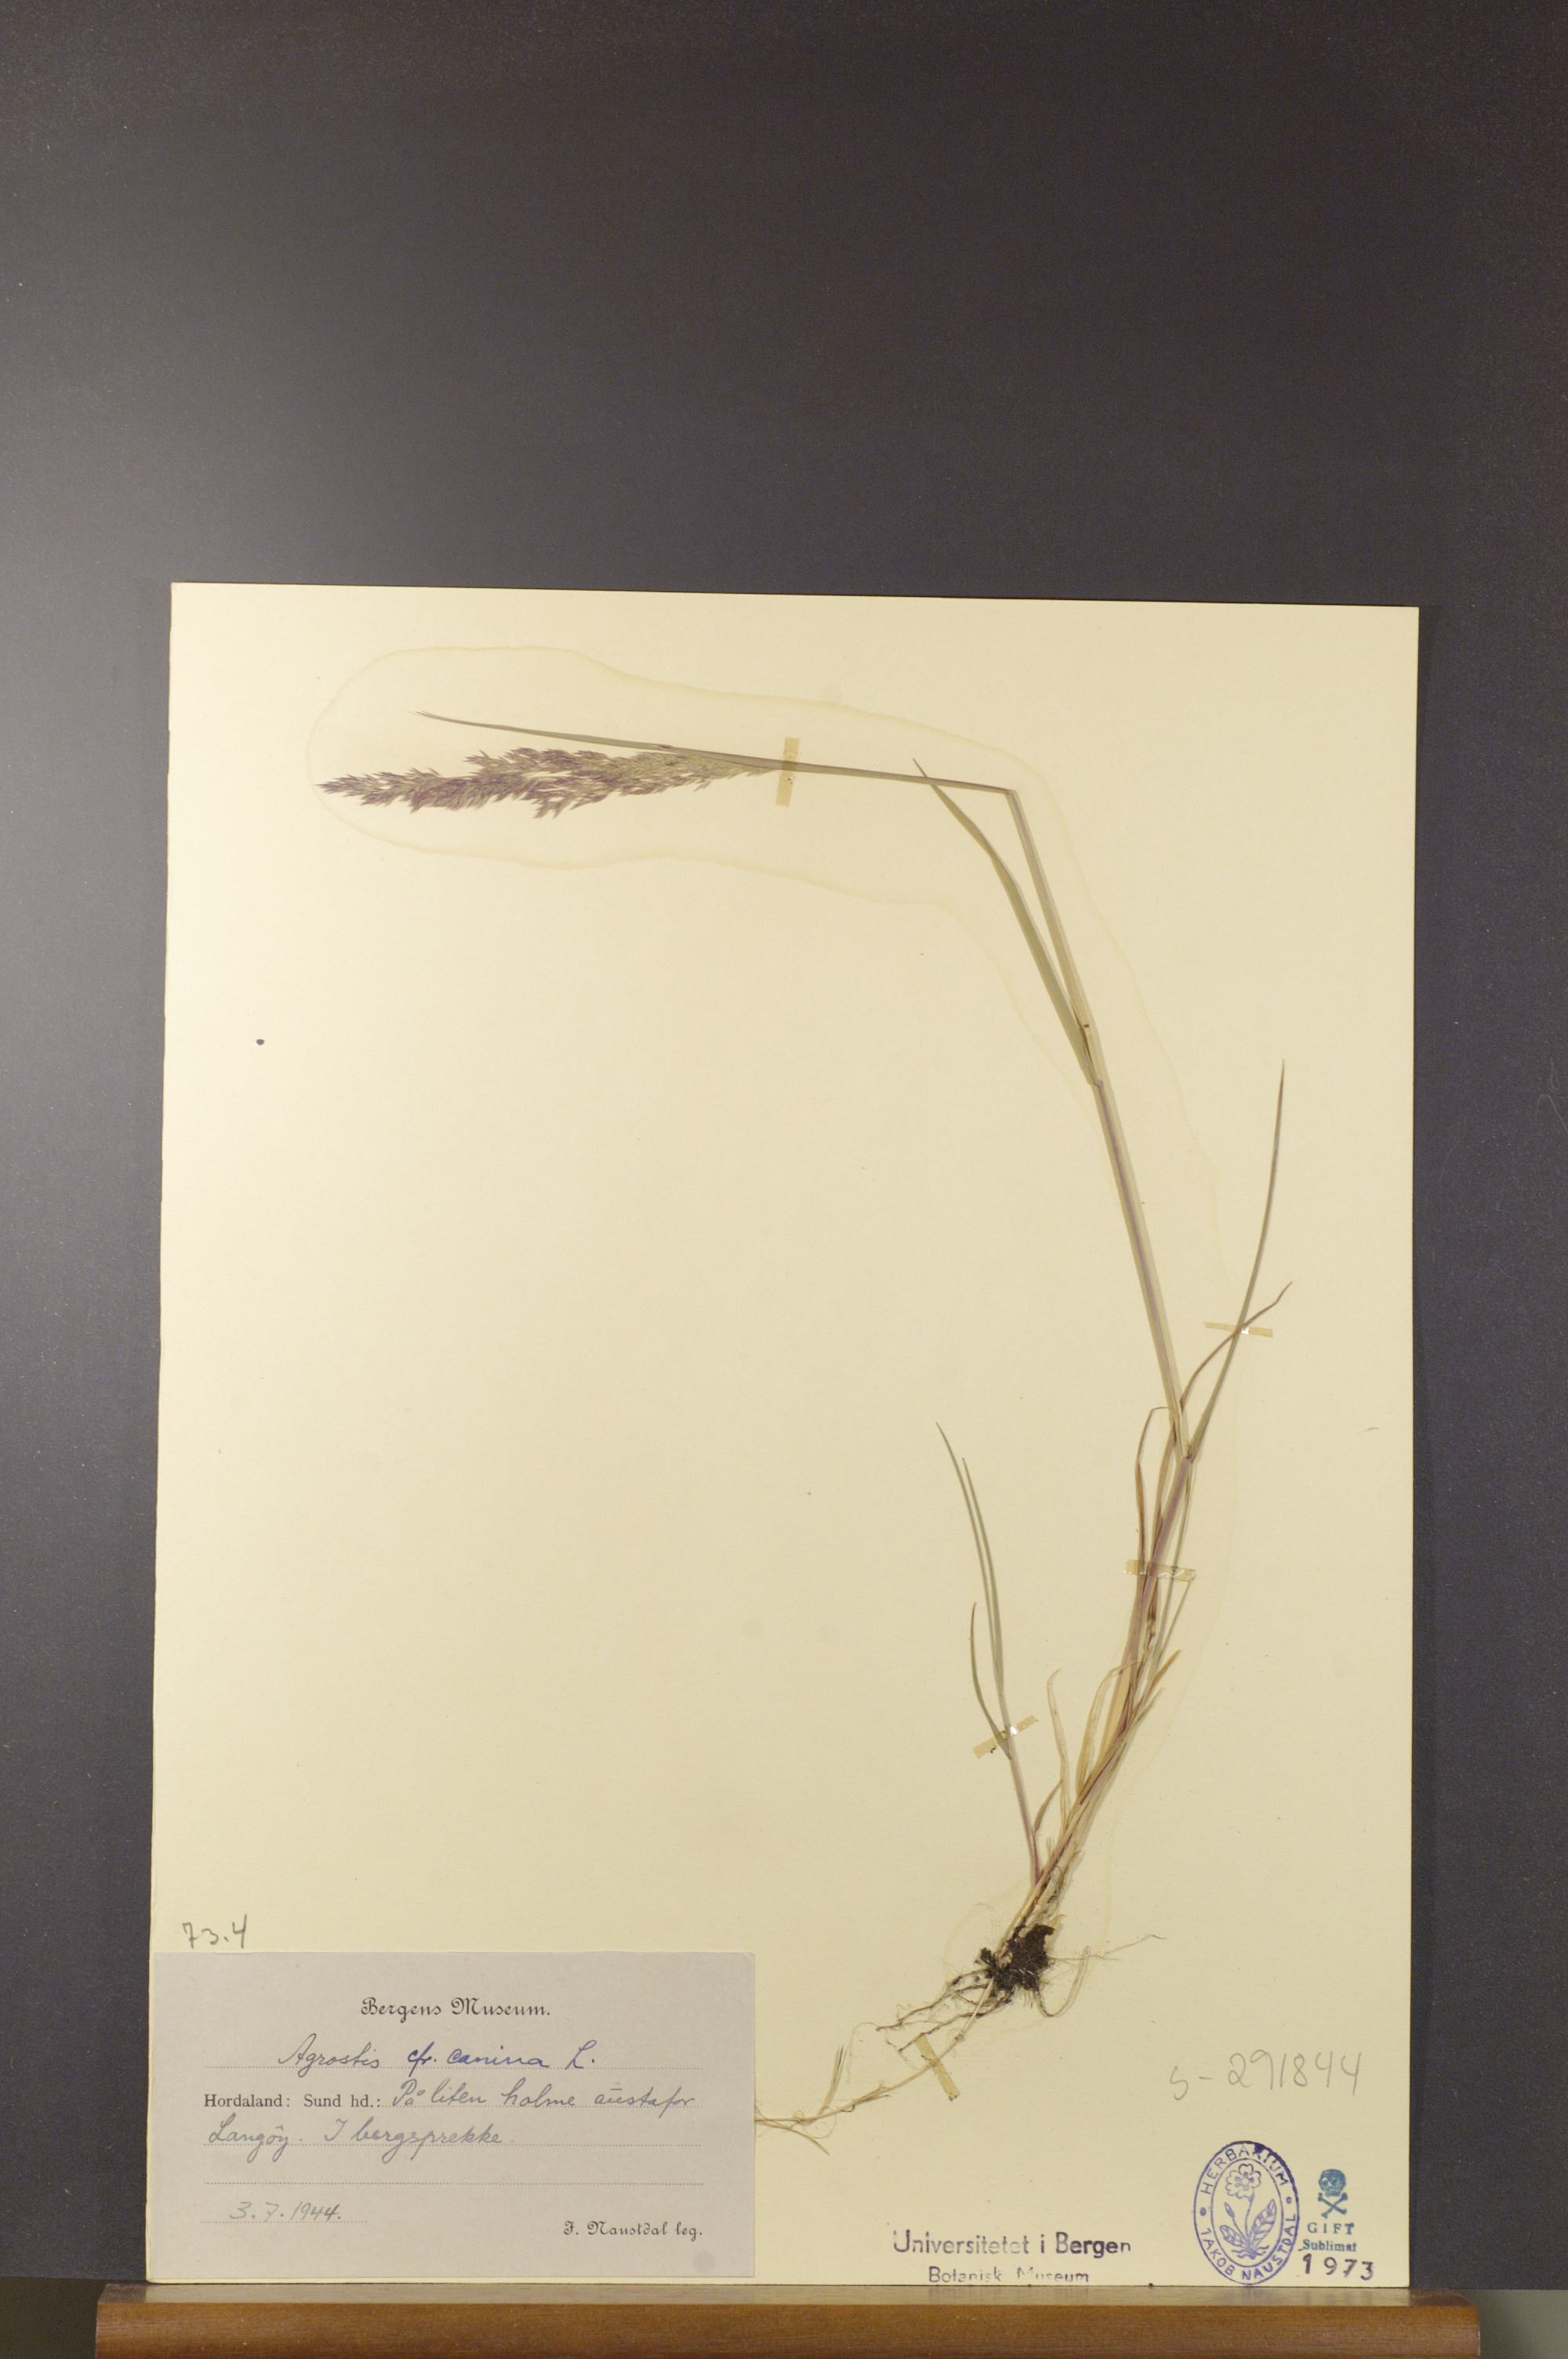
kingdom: Plantae
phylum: Tracheophyta
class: Liliopsida
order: Poales
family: Poaceae
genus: Agrostis
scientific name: Agrostis canina
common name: Velvet bent
